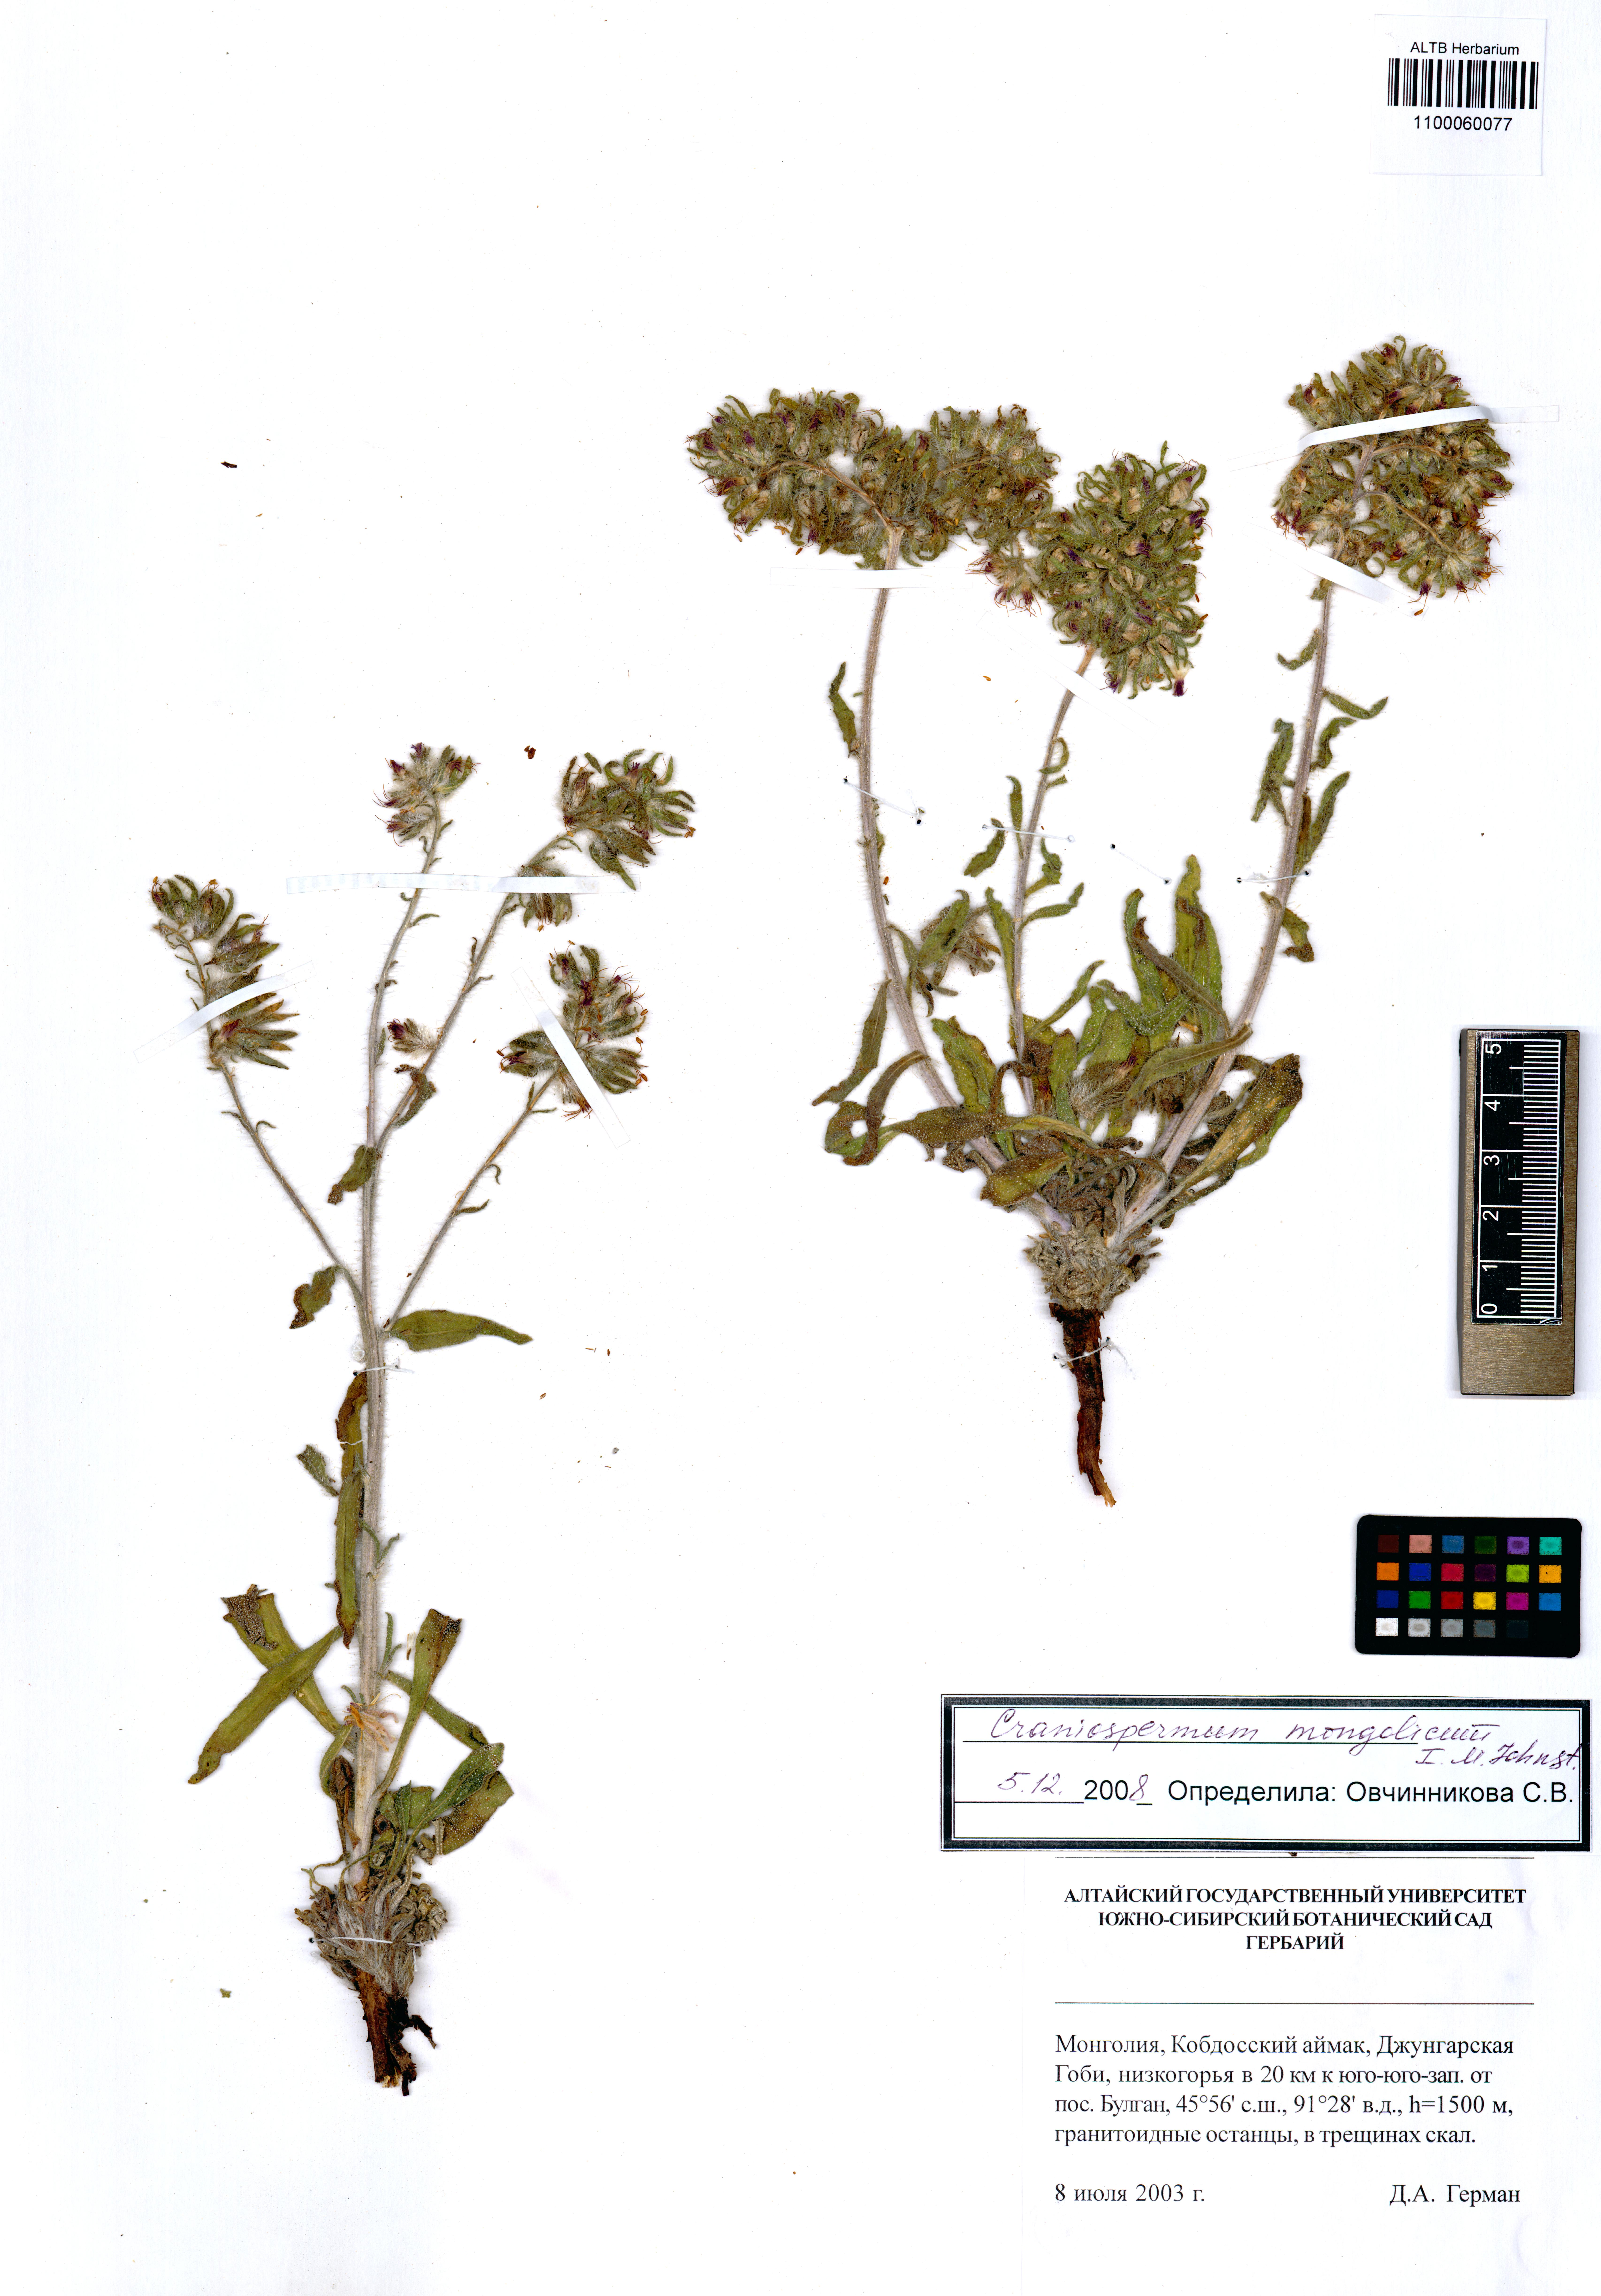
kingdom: Plantae
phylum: Tracheophyta
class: Magnoliopsida
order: Boraginales
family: Boraginaceae
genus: Craniospermum
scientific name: Craniospermum mongolicum
